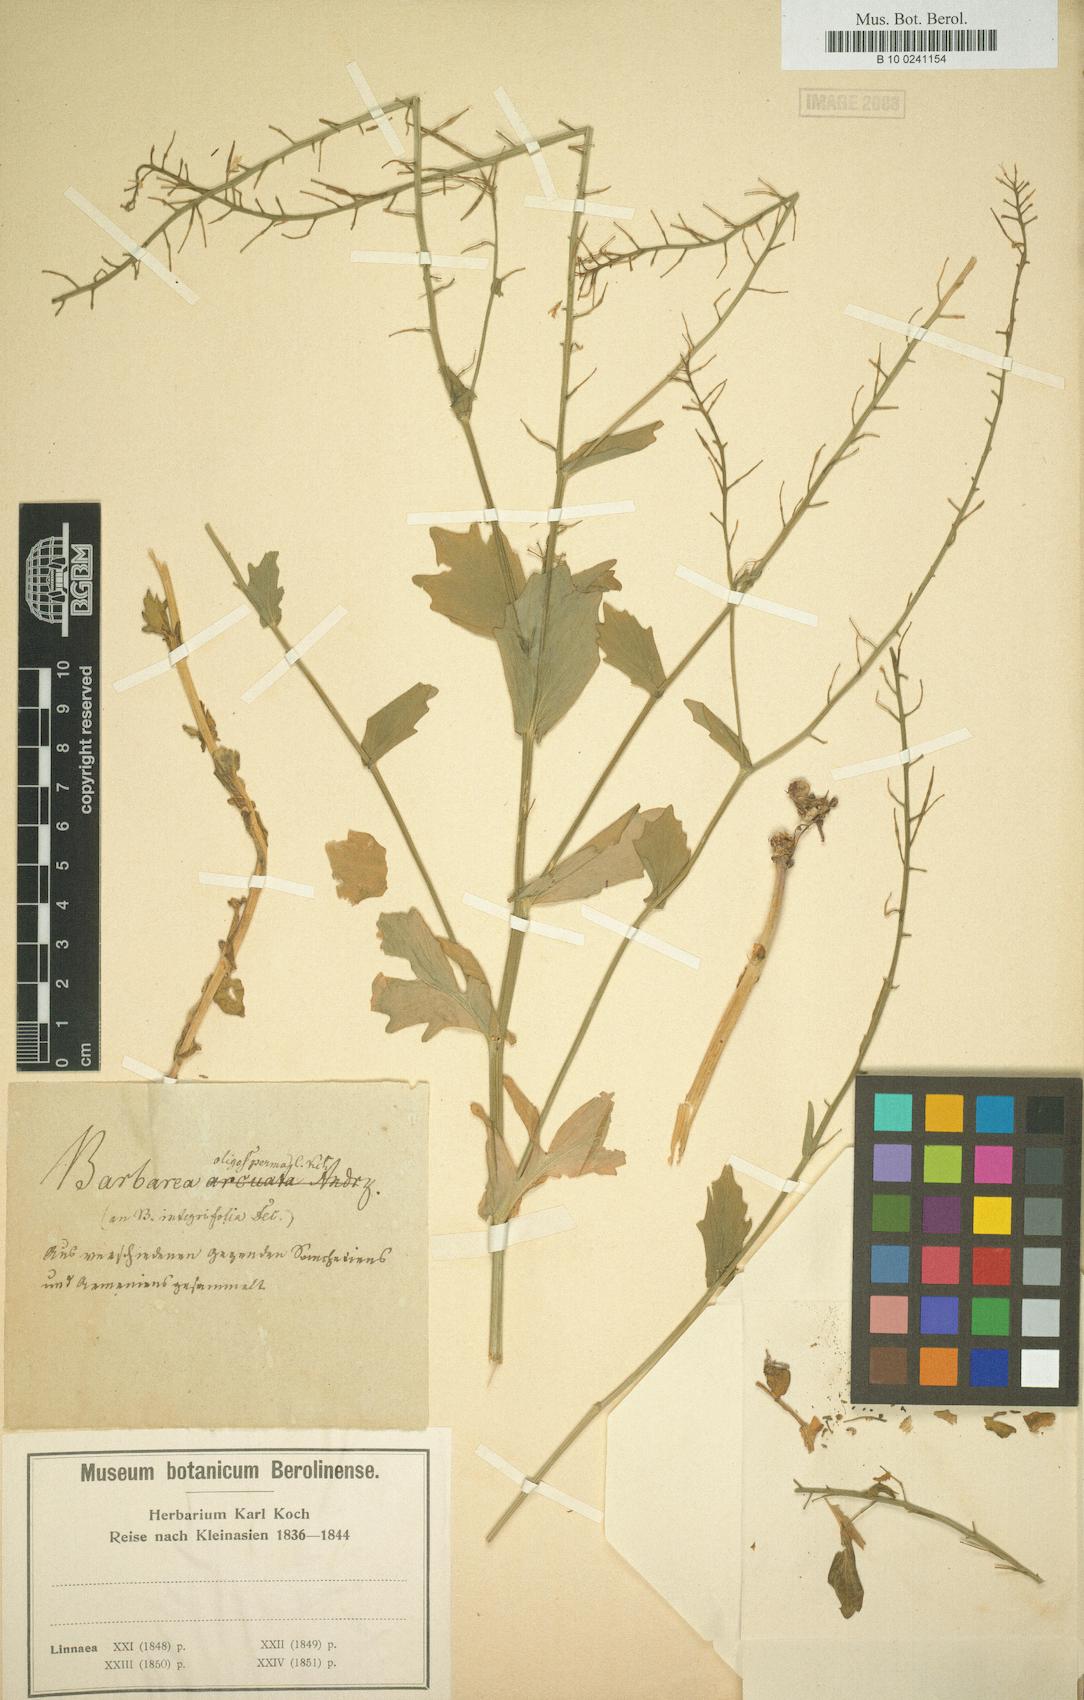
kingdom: Plantae
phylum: Tracheophyta
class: Magnoliopsida
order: Brassicales
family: Brassicaceae
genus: Barbarea
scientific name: Barbarea oligosperma
